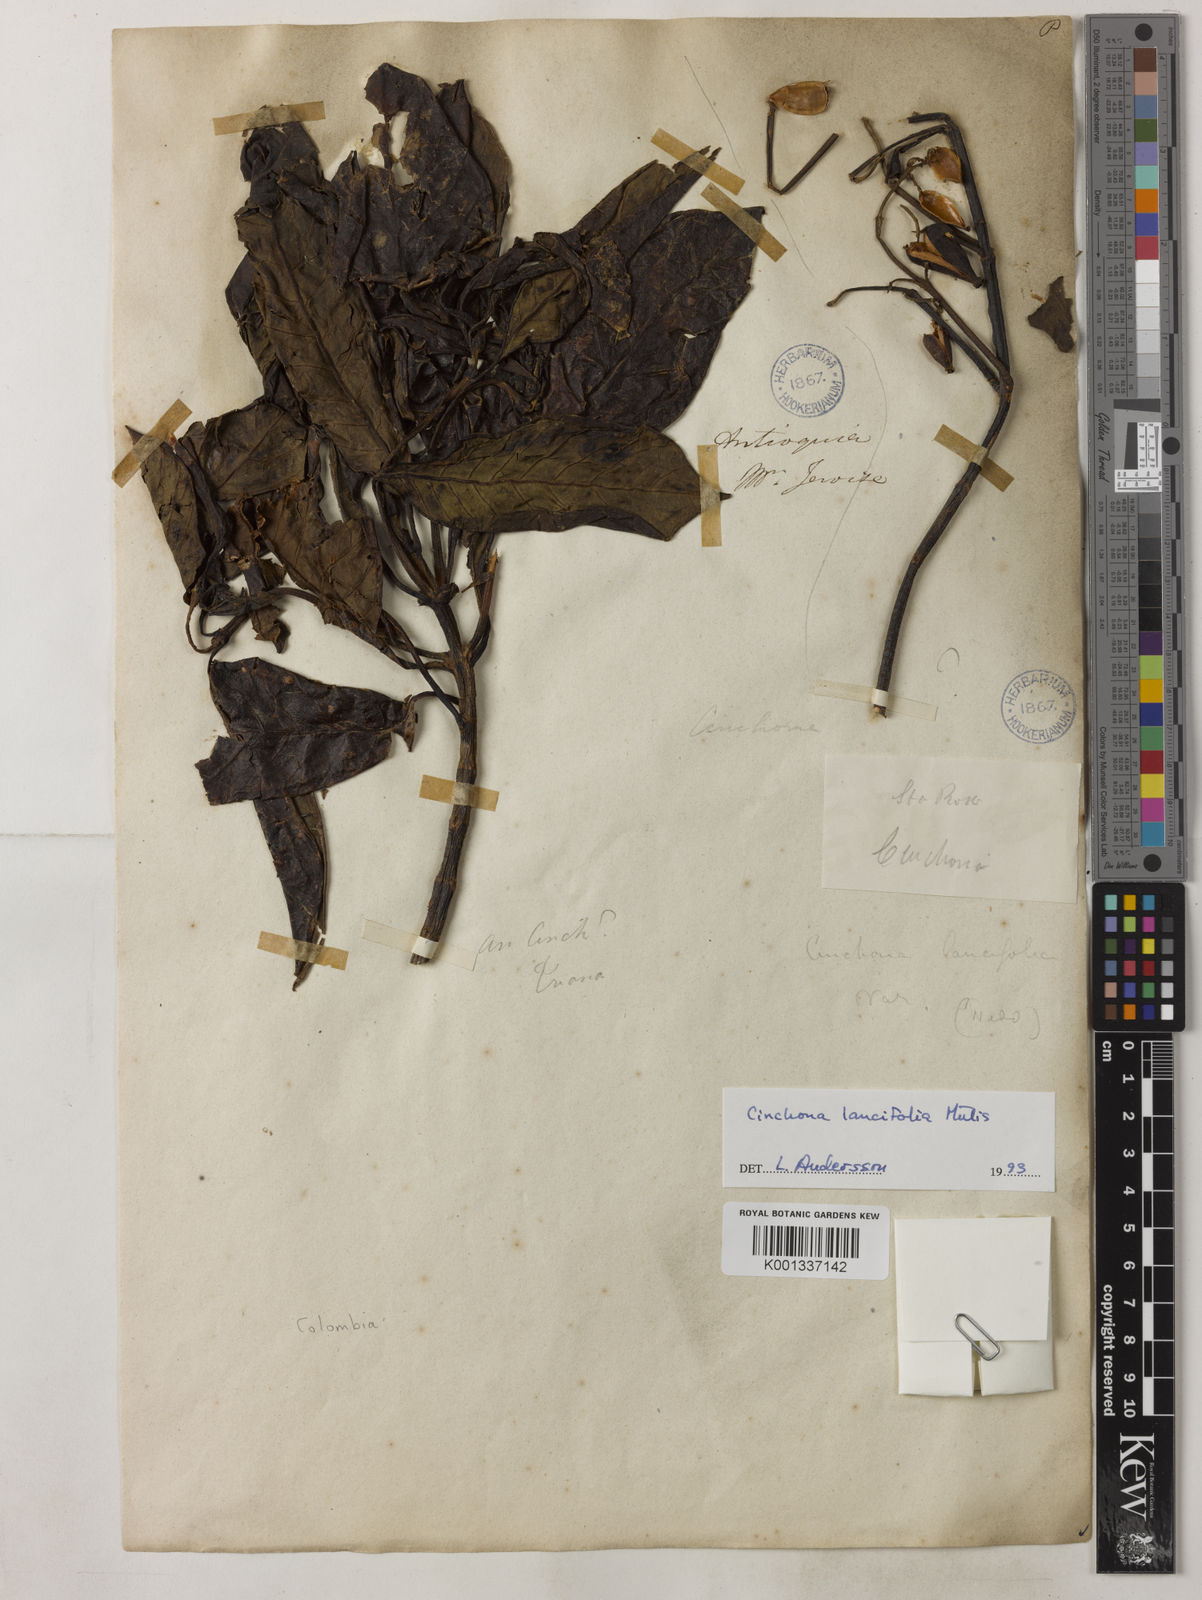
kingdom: Plantae
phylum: Tracheophyta
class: Magnoliopsida
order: Gentianales
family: Rubiaceae
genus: Cinchona
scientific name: Cinchona antioquiae
